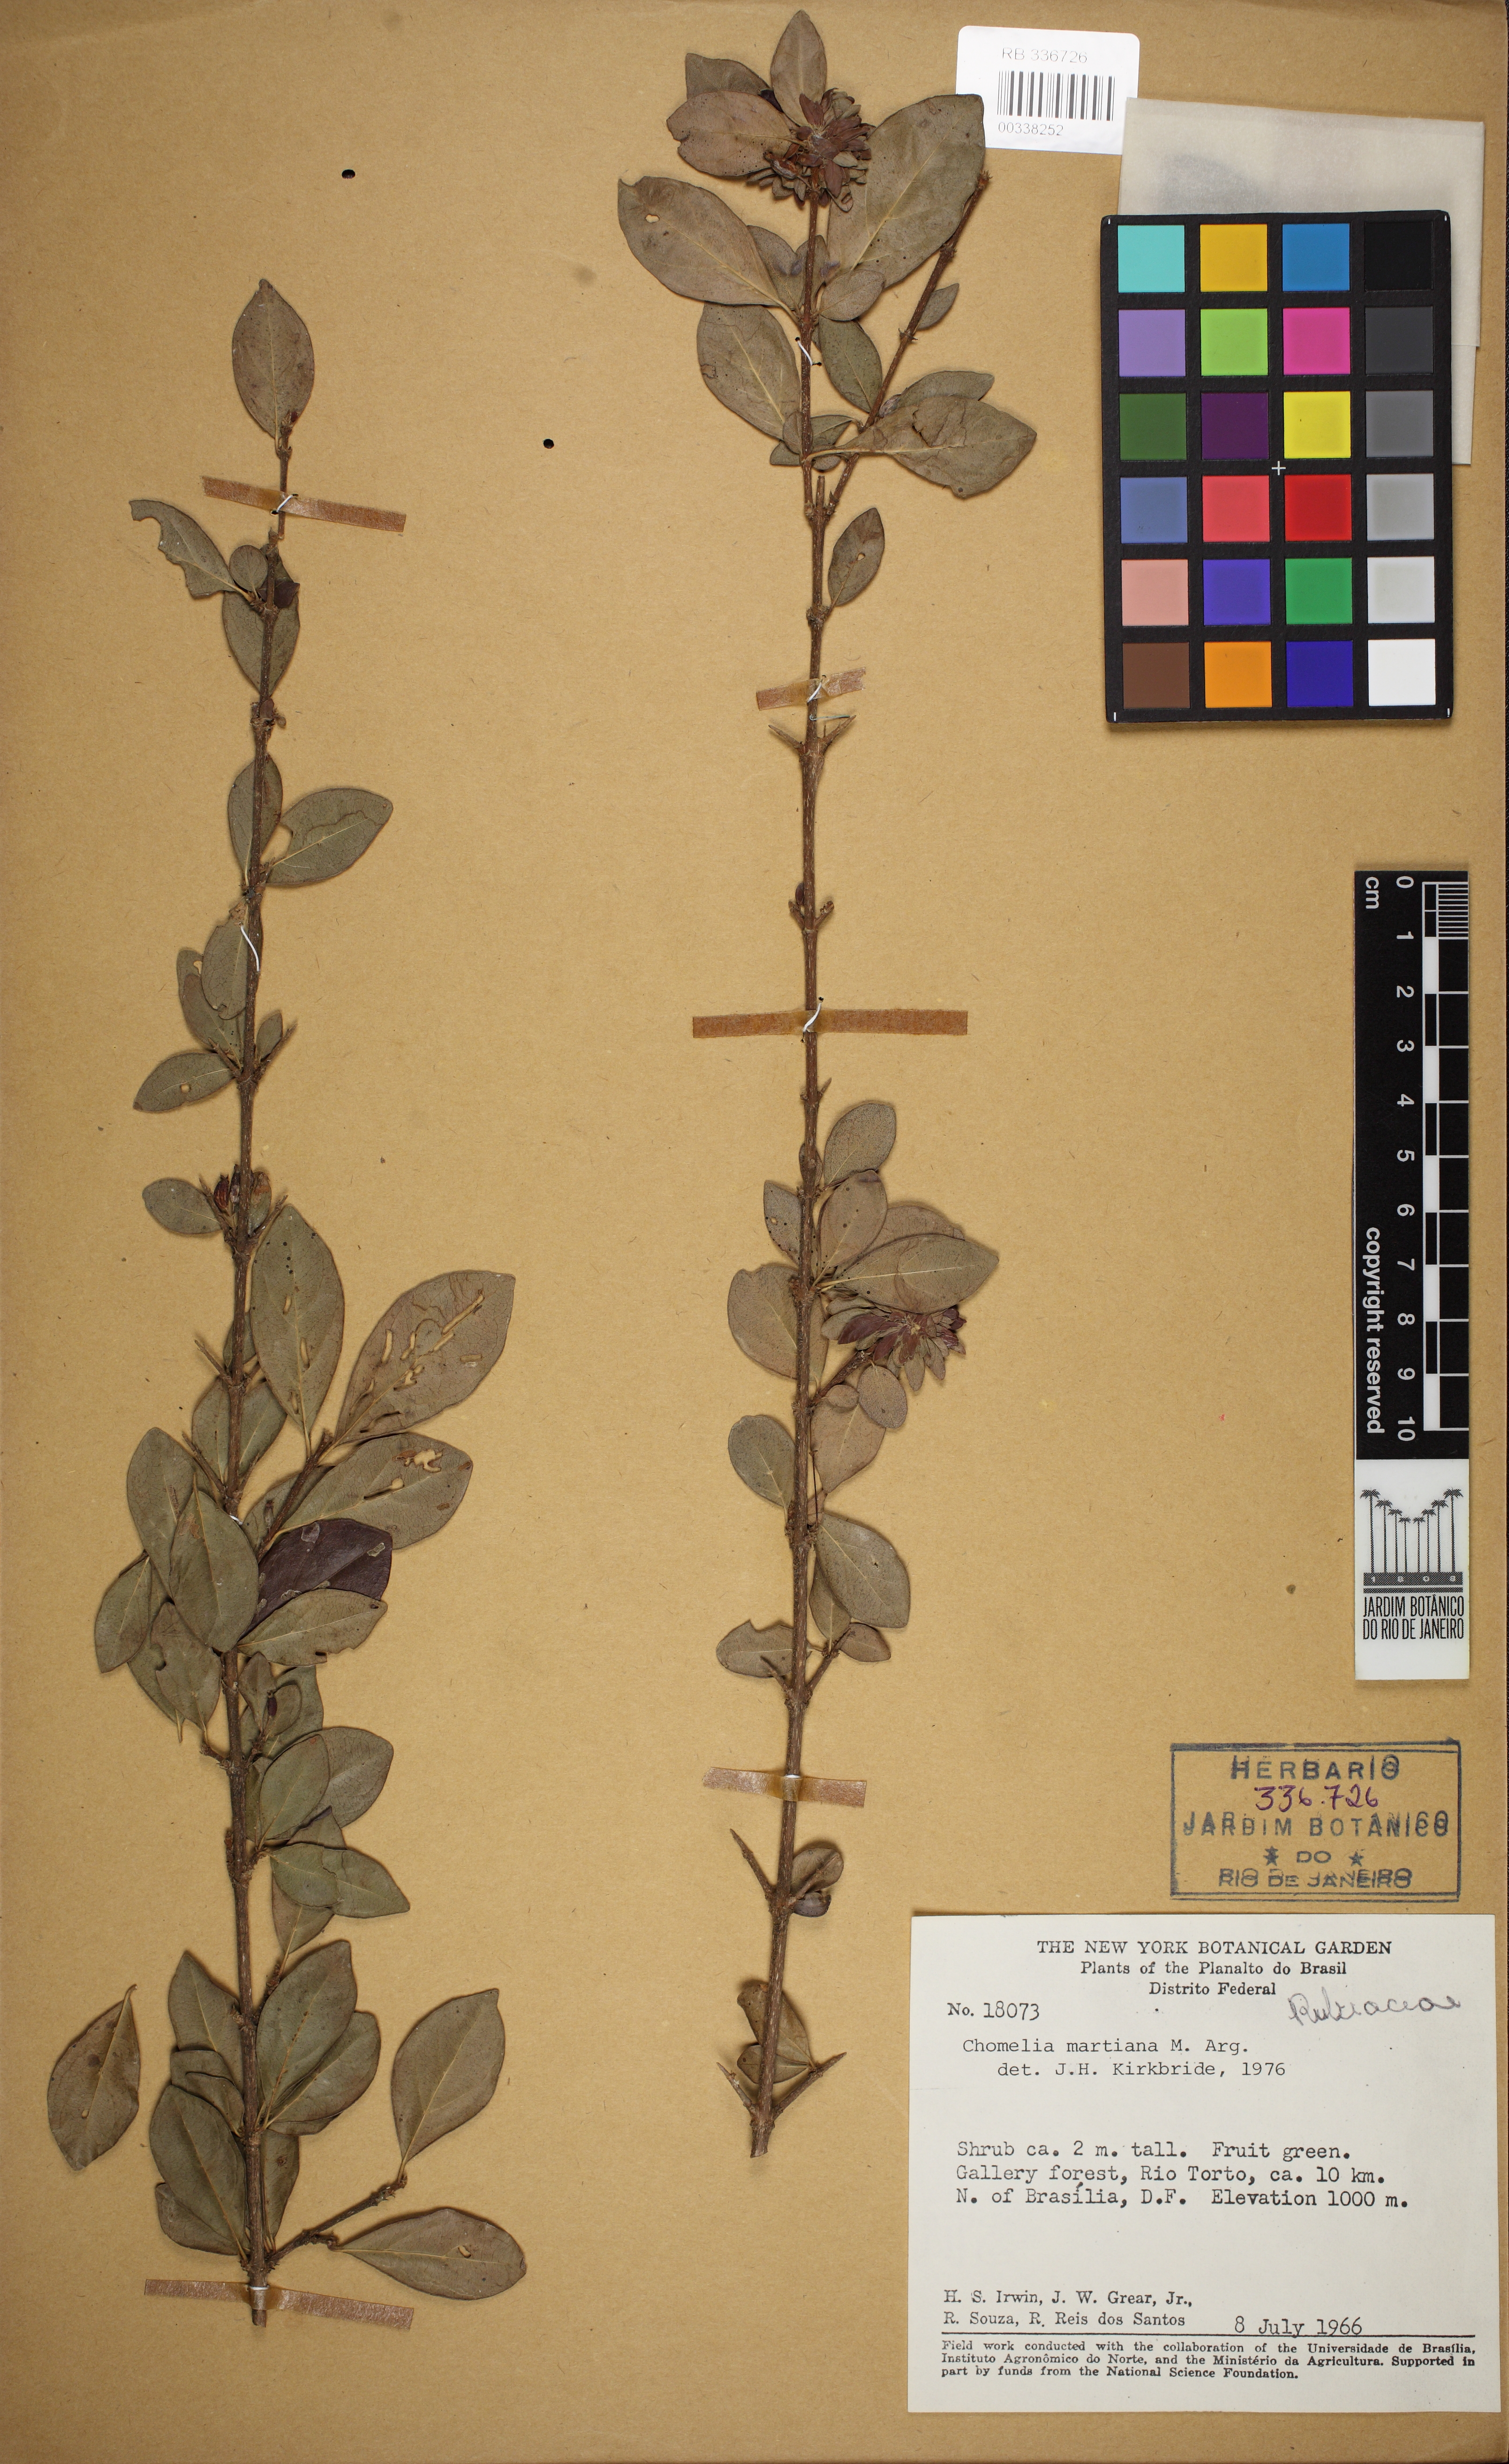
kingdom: Plantae
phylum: Tracheophyta
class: Magnoliopsida
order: Gentianales
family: Rubiaceae
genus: Chomelia
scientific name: Chomelia obtusa
